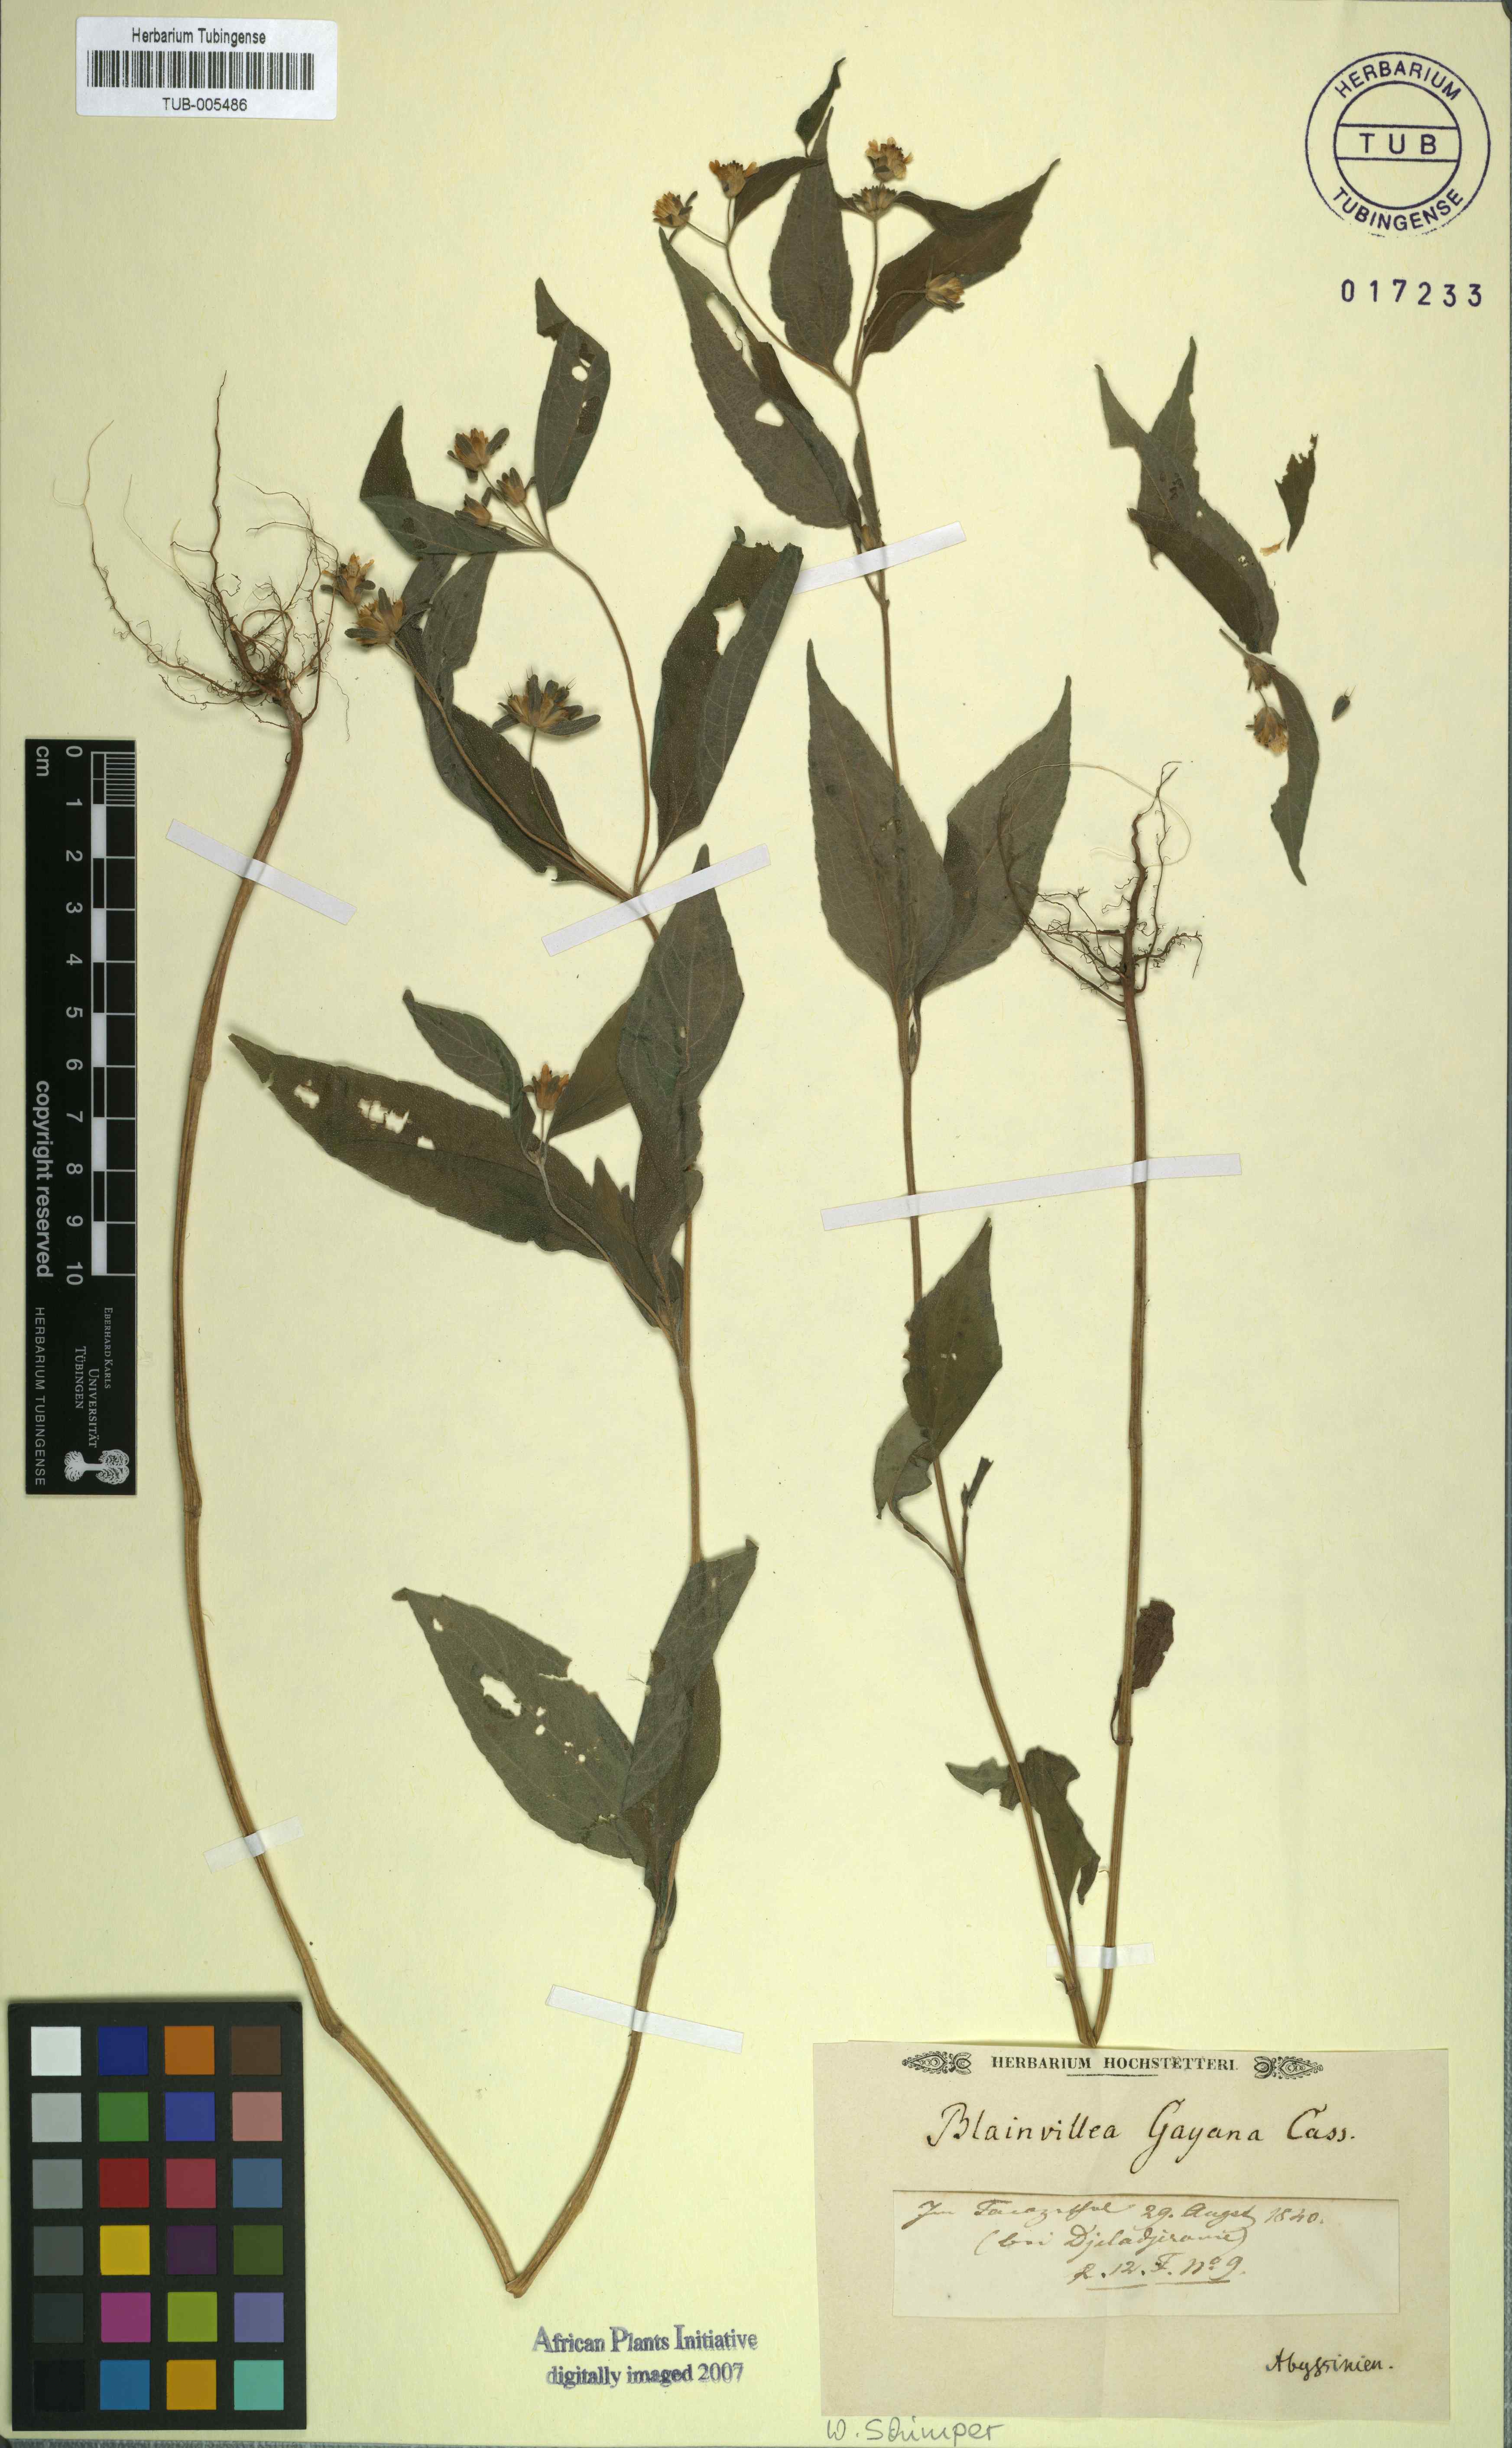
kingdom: Plantae
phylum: Tracheophyta
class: Magnoliopsida
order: Asterales
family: Asteraceae
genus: Blainvillea
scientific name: Blainvillea gayana
